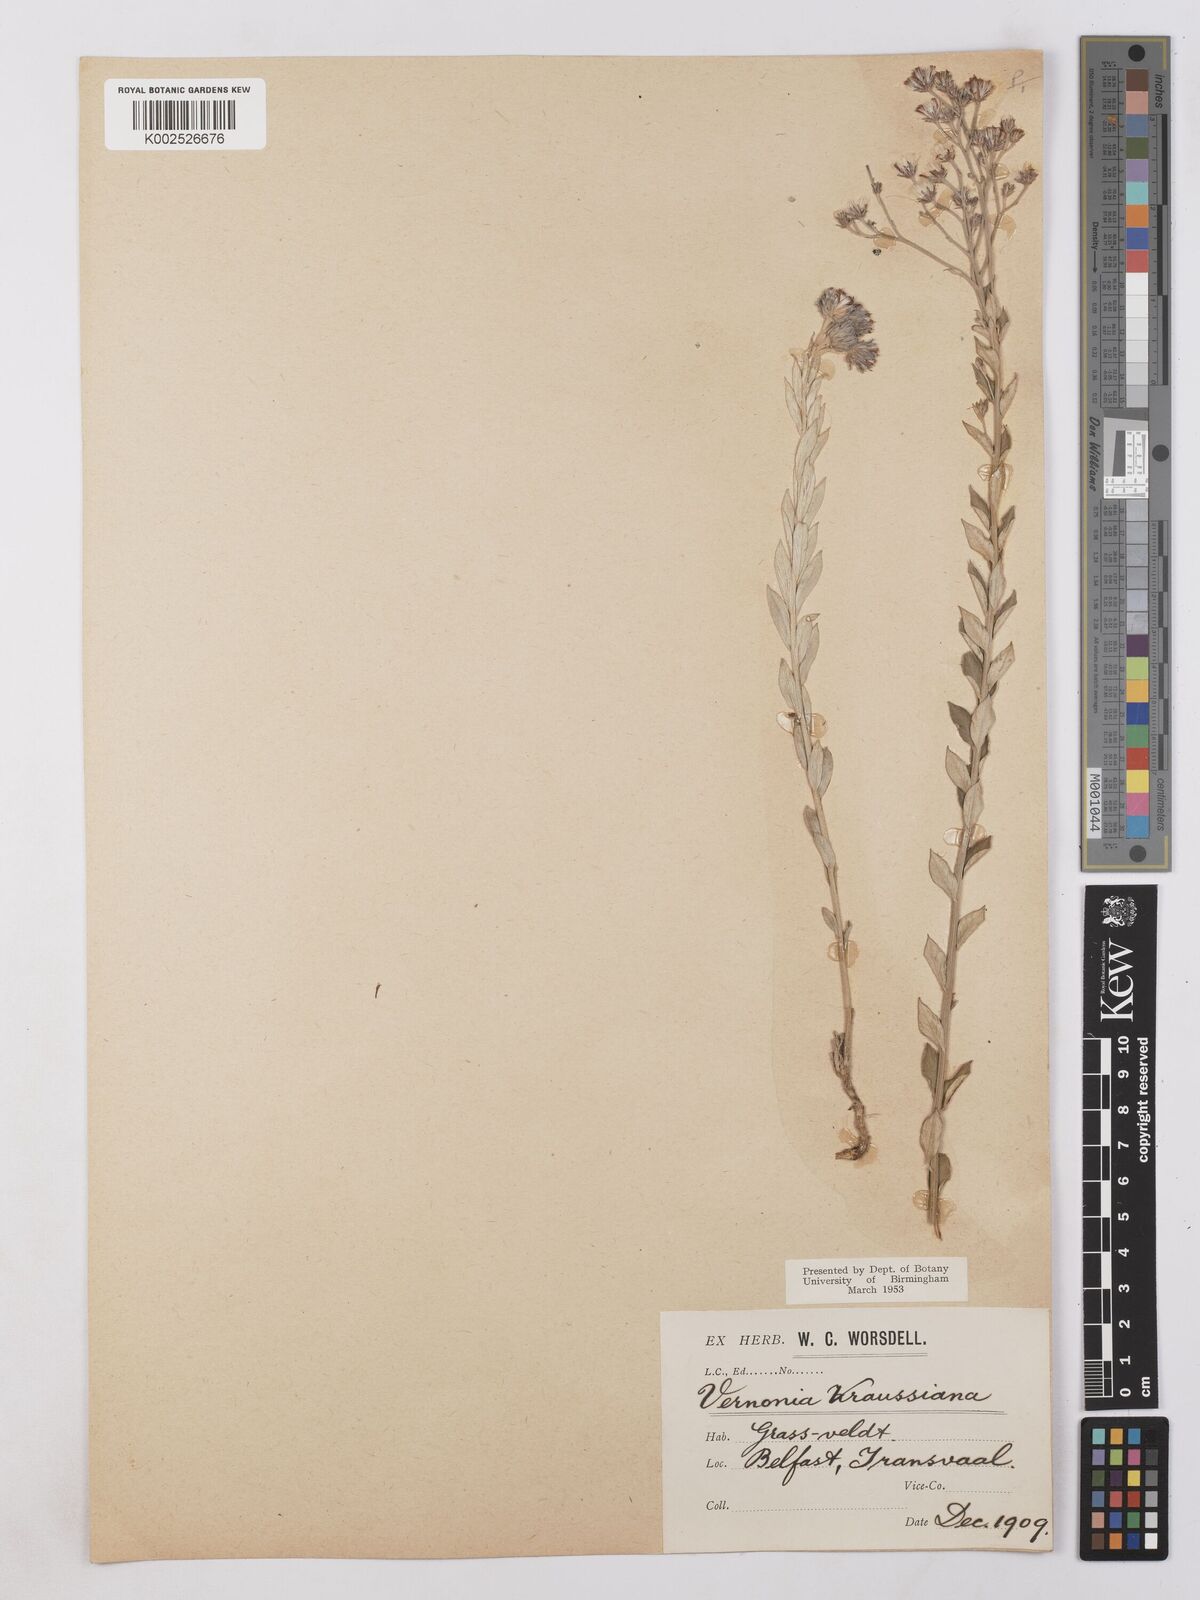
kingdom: Plantae
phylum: Tracheophyta
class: Magnoliopsida
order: Asterales
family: Asteraceae
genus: Hilliardiella
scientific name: Hilliardiella oligocephala
